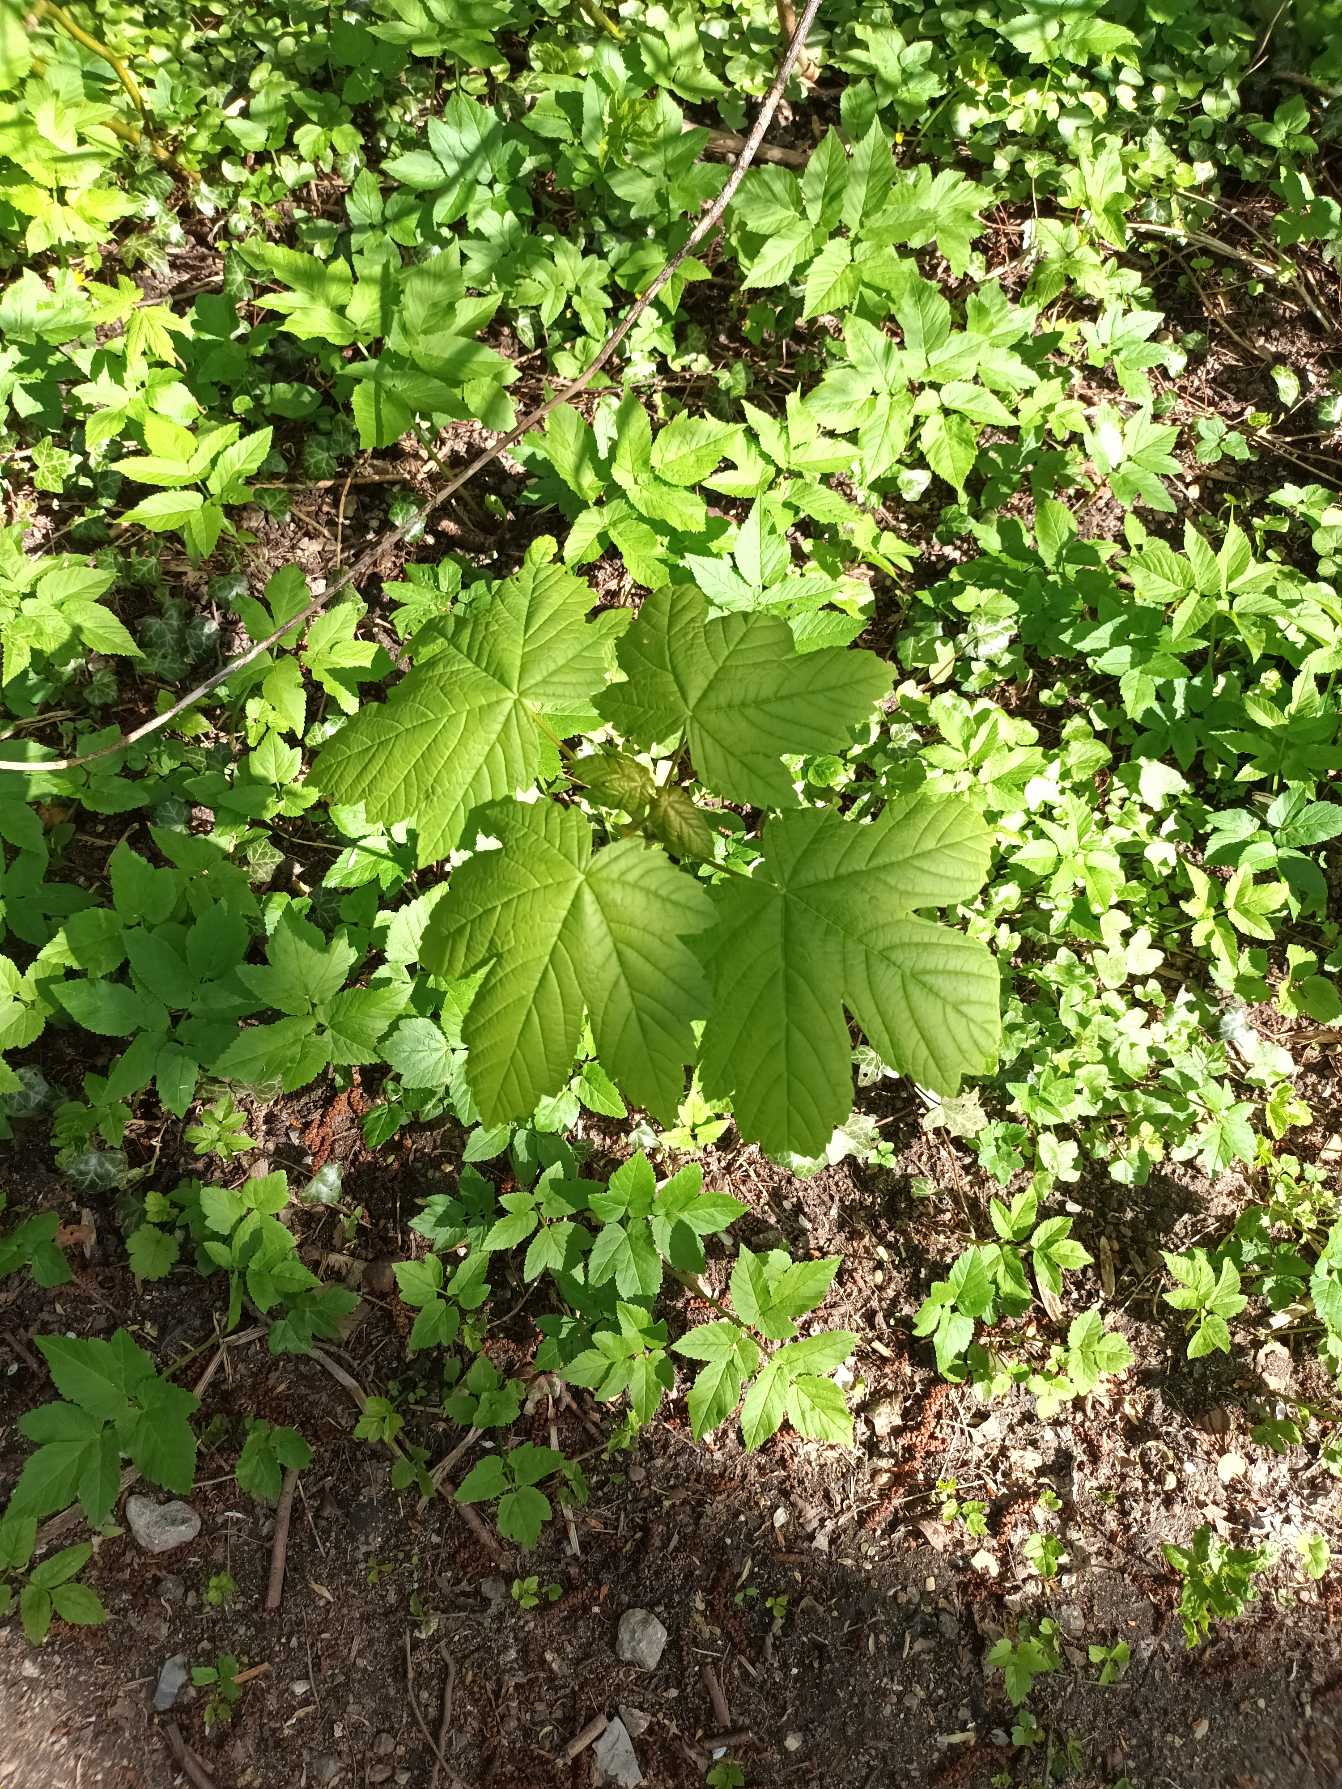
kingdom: Plantae
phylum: Tracheophyta
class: Magnoliopsida
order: Sapindales
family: Sapindaceae
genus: Acer
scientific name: Acer pseudoplatanus
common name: Ahorn
